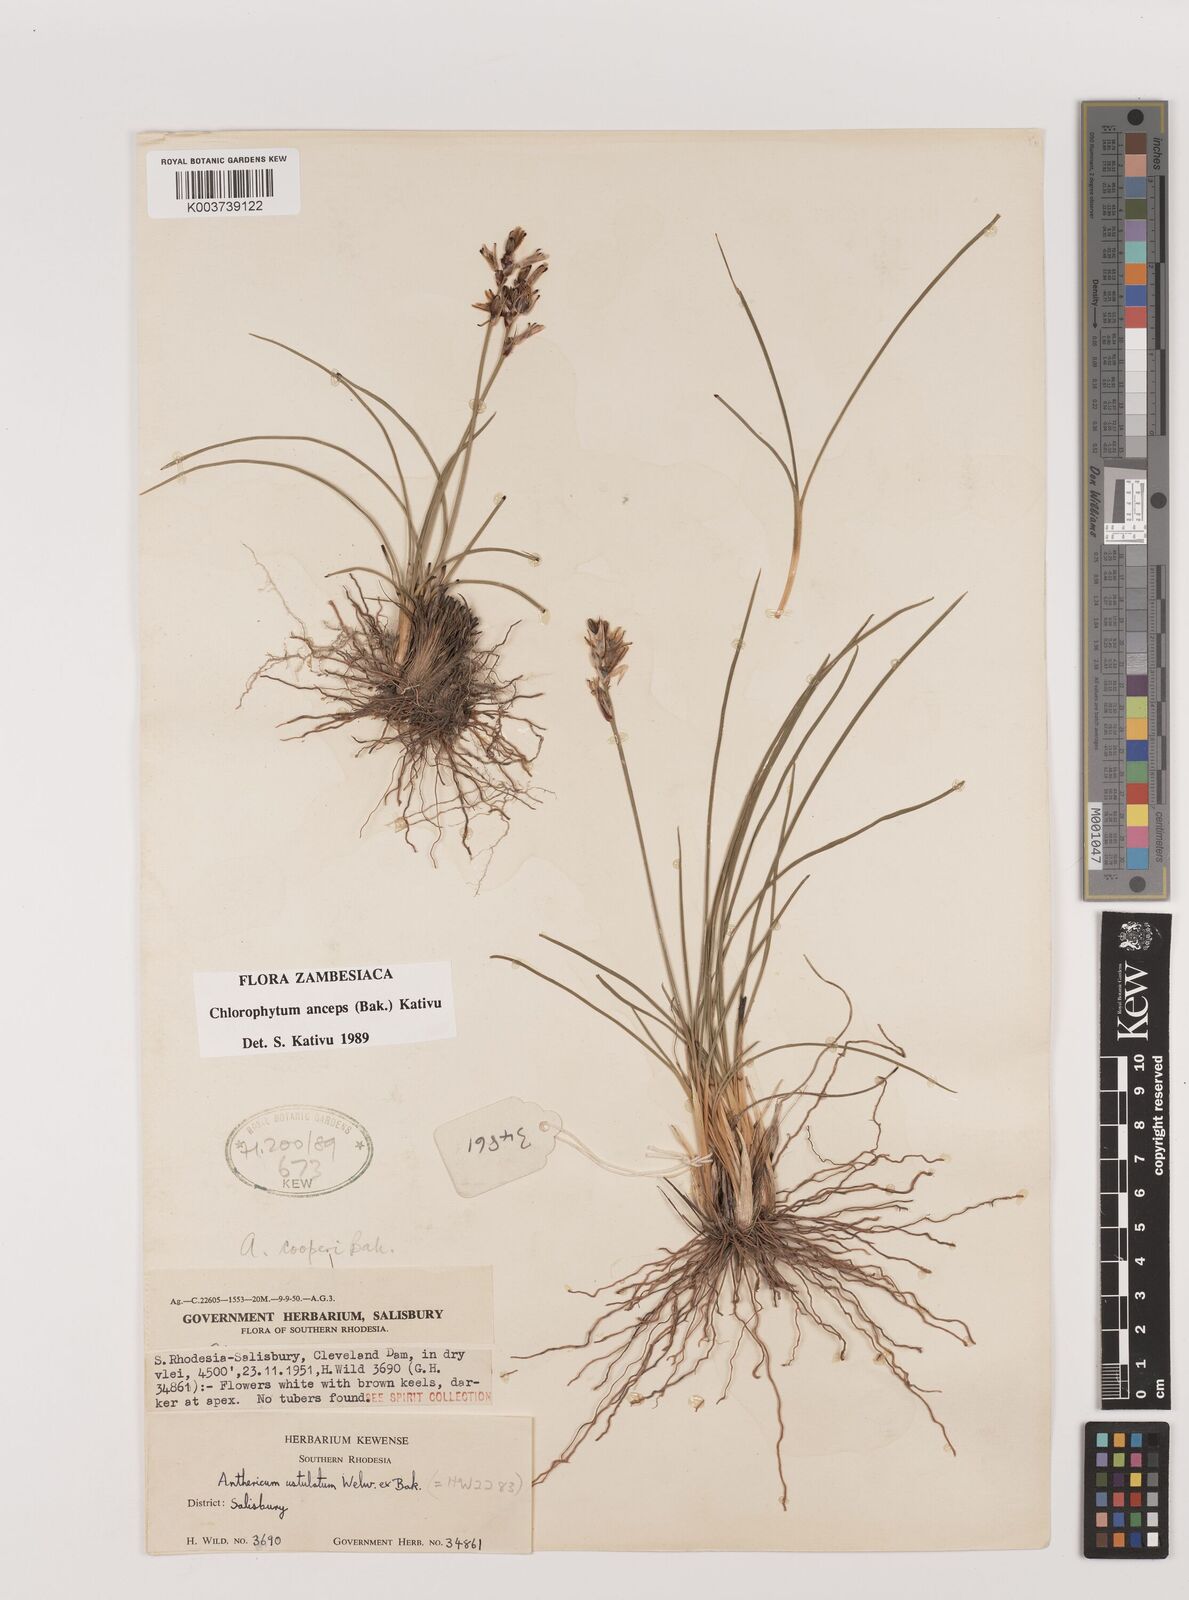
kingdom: Plantae
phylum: Tracheophyta
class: Liliopsida
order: Asparagales
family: Asparagaceae
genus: Chlorophytum
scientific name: Chlorophytum anceps
